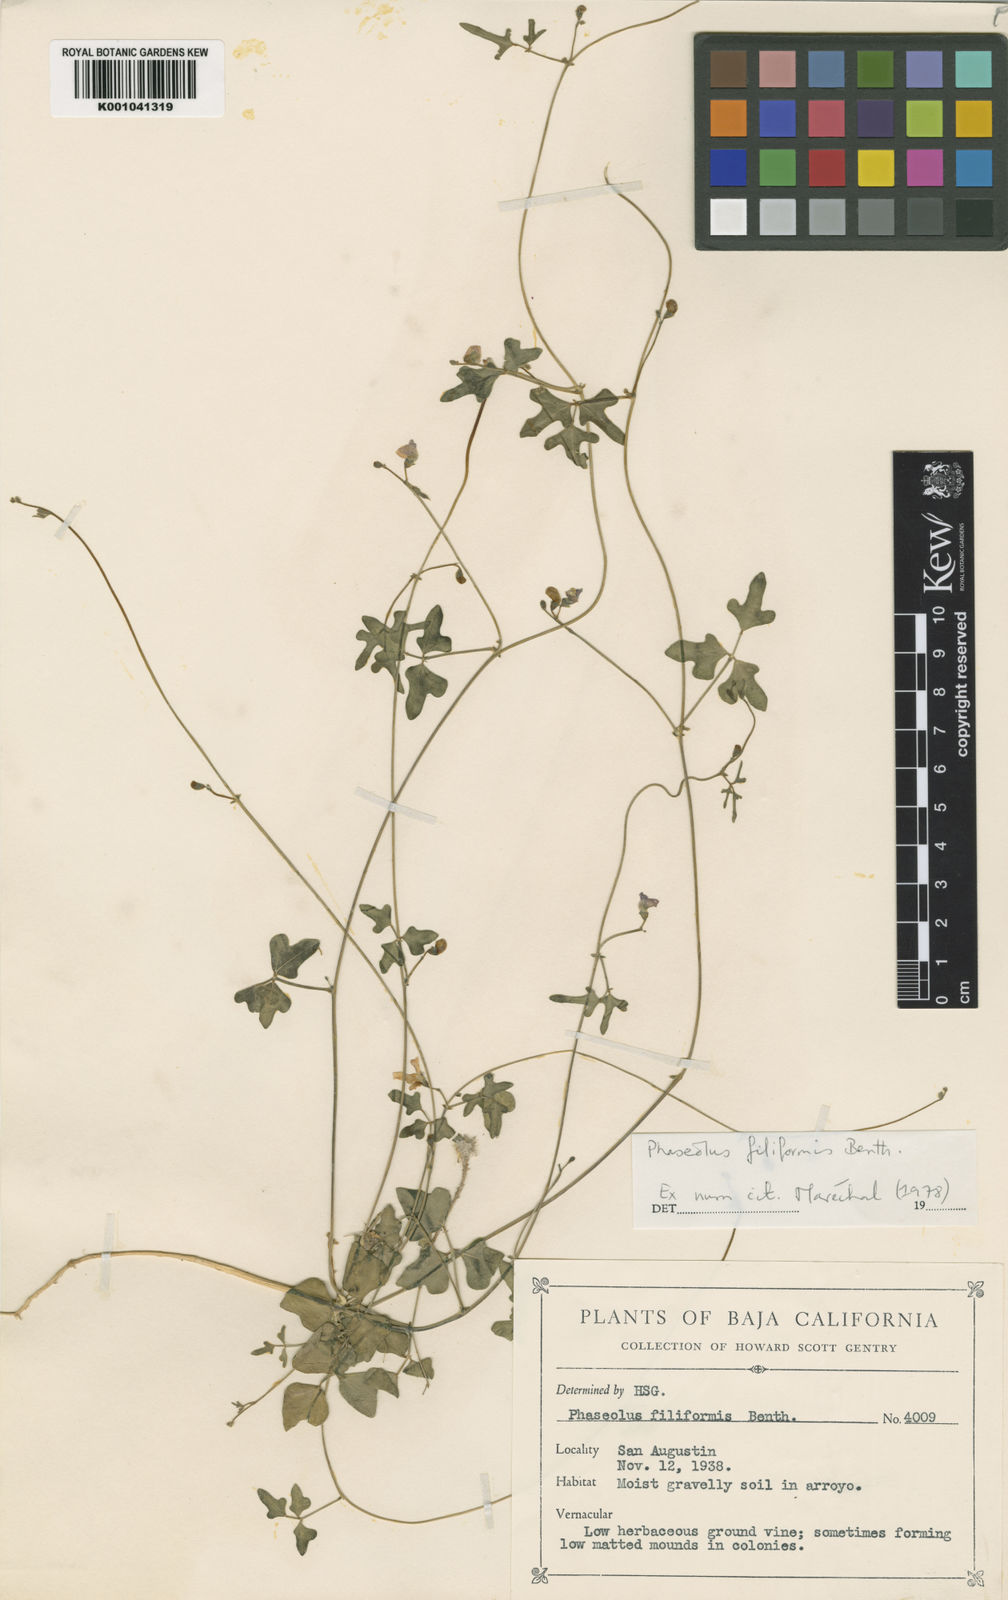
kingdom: Plantae
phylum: Tracheophyta
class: Magnoliopsida
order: Fabales
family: Fabaceae
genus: Phaseolus
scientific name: Phaseolus filiformis
